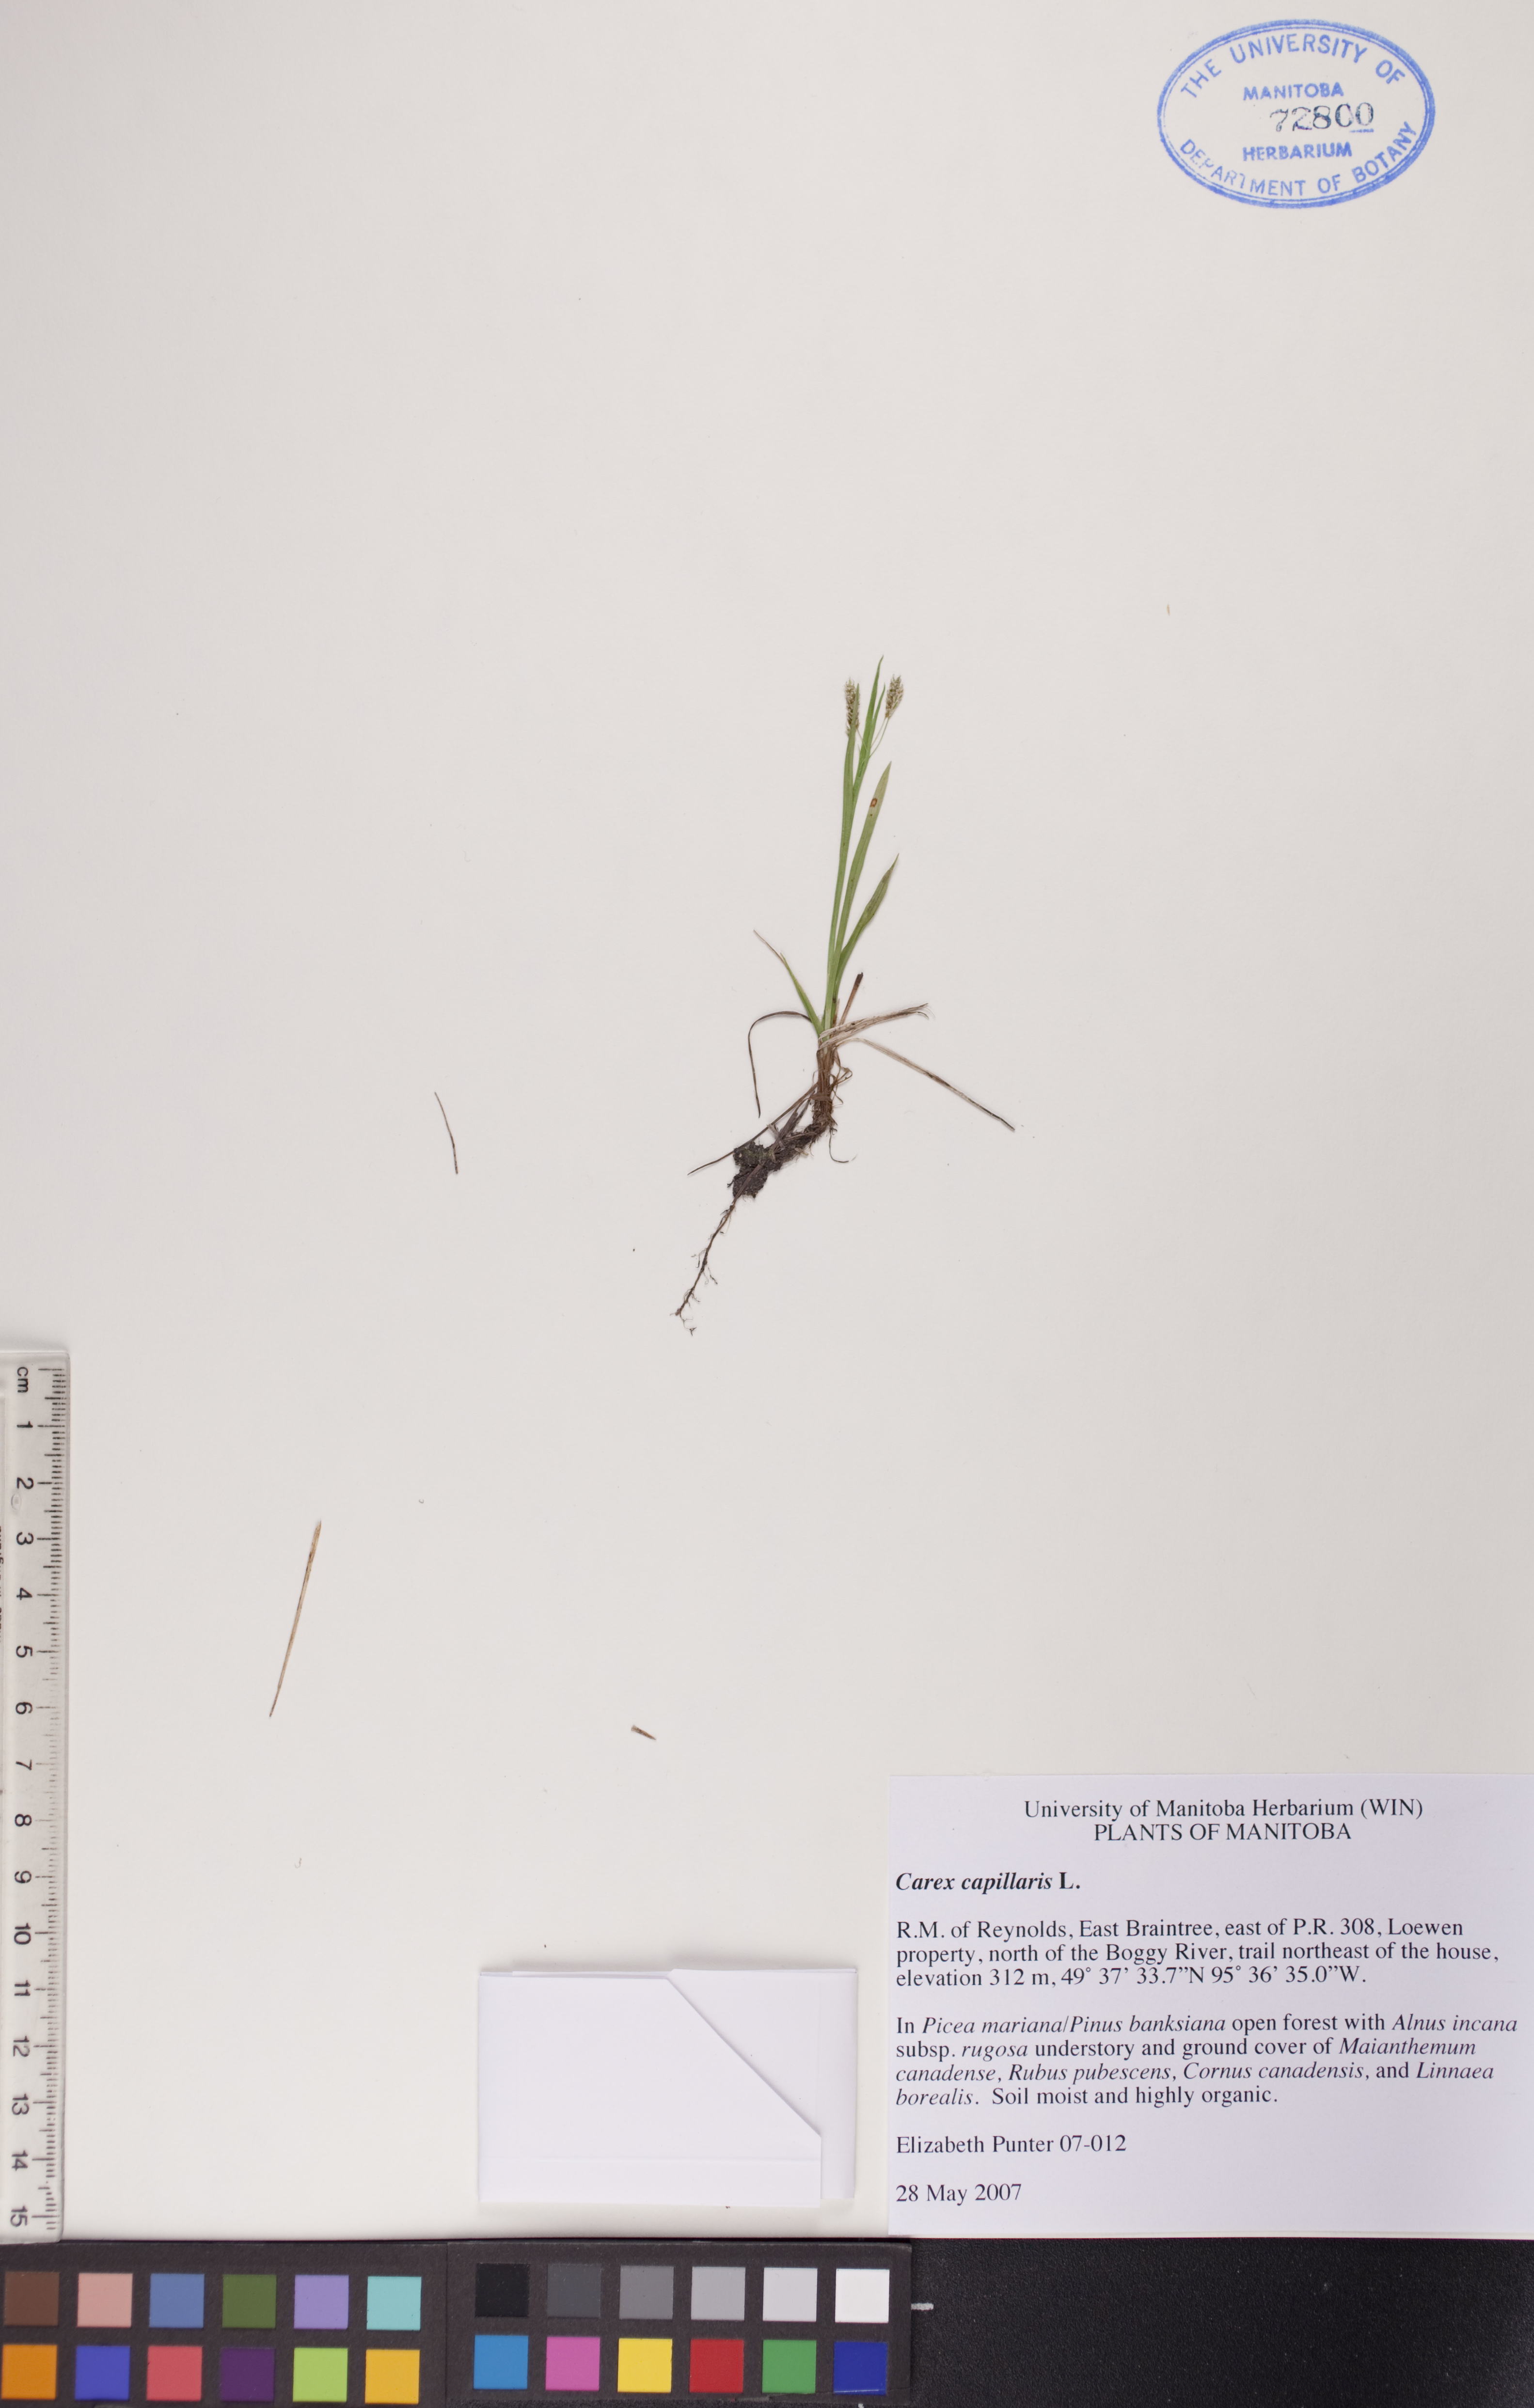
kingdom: Plantae
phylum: Tracheophyta
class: Liliopsida
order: Poales
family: Cyperaceae
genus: Carex
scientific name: Carex capillaris
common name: Hair sedge
